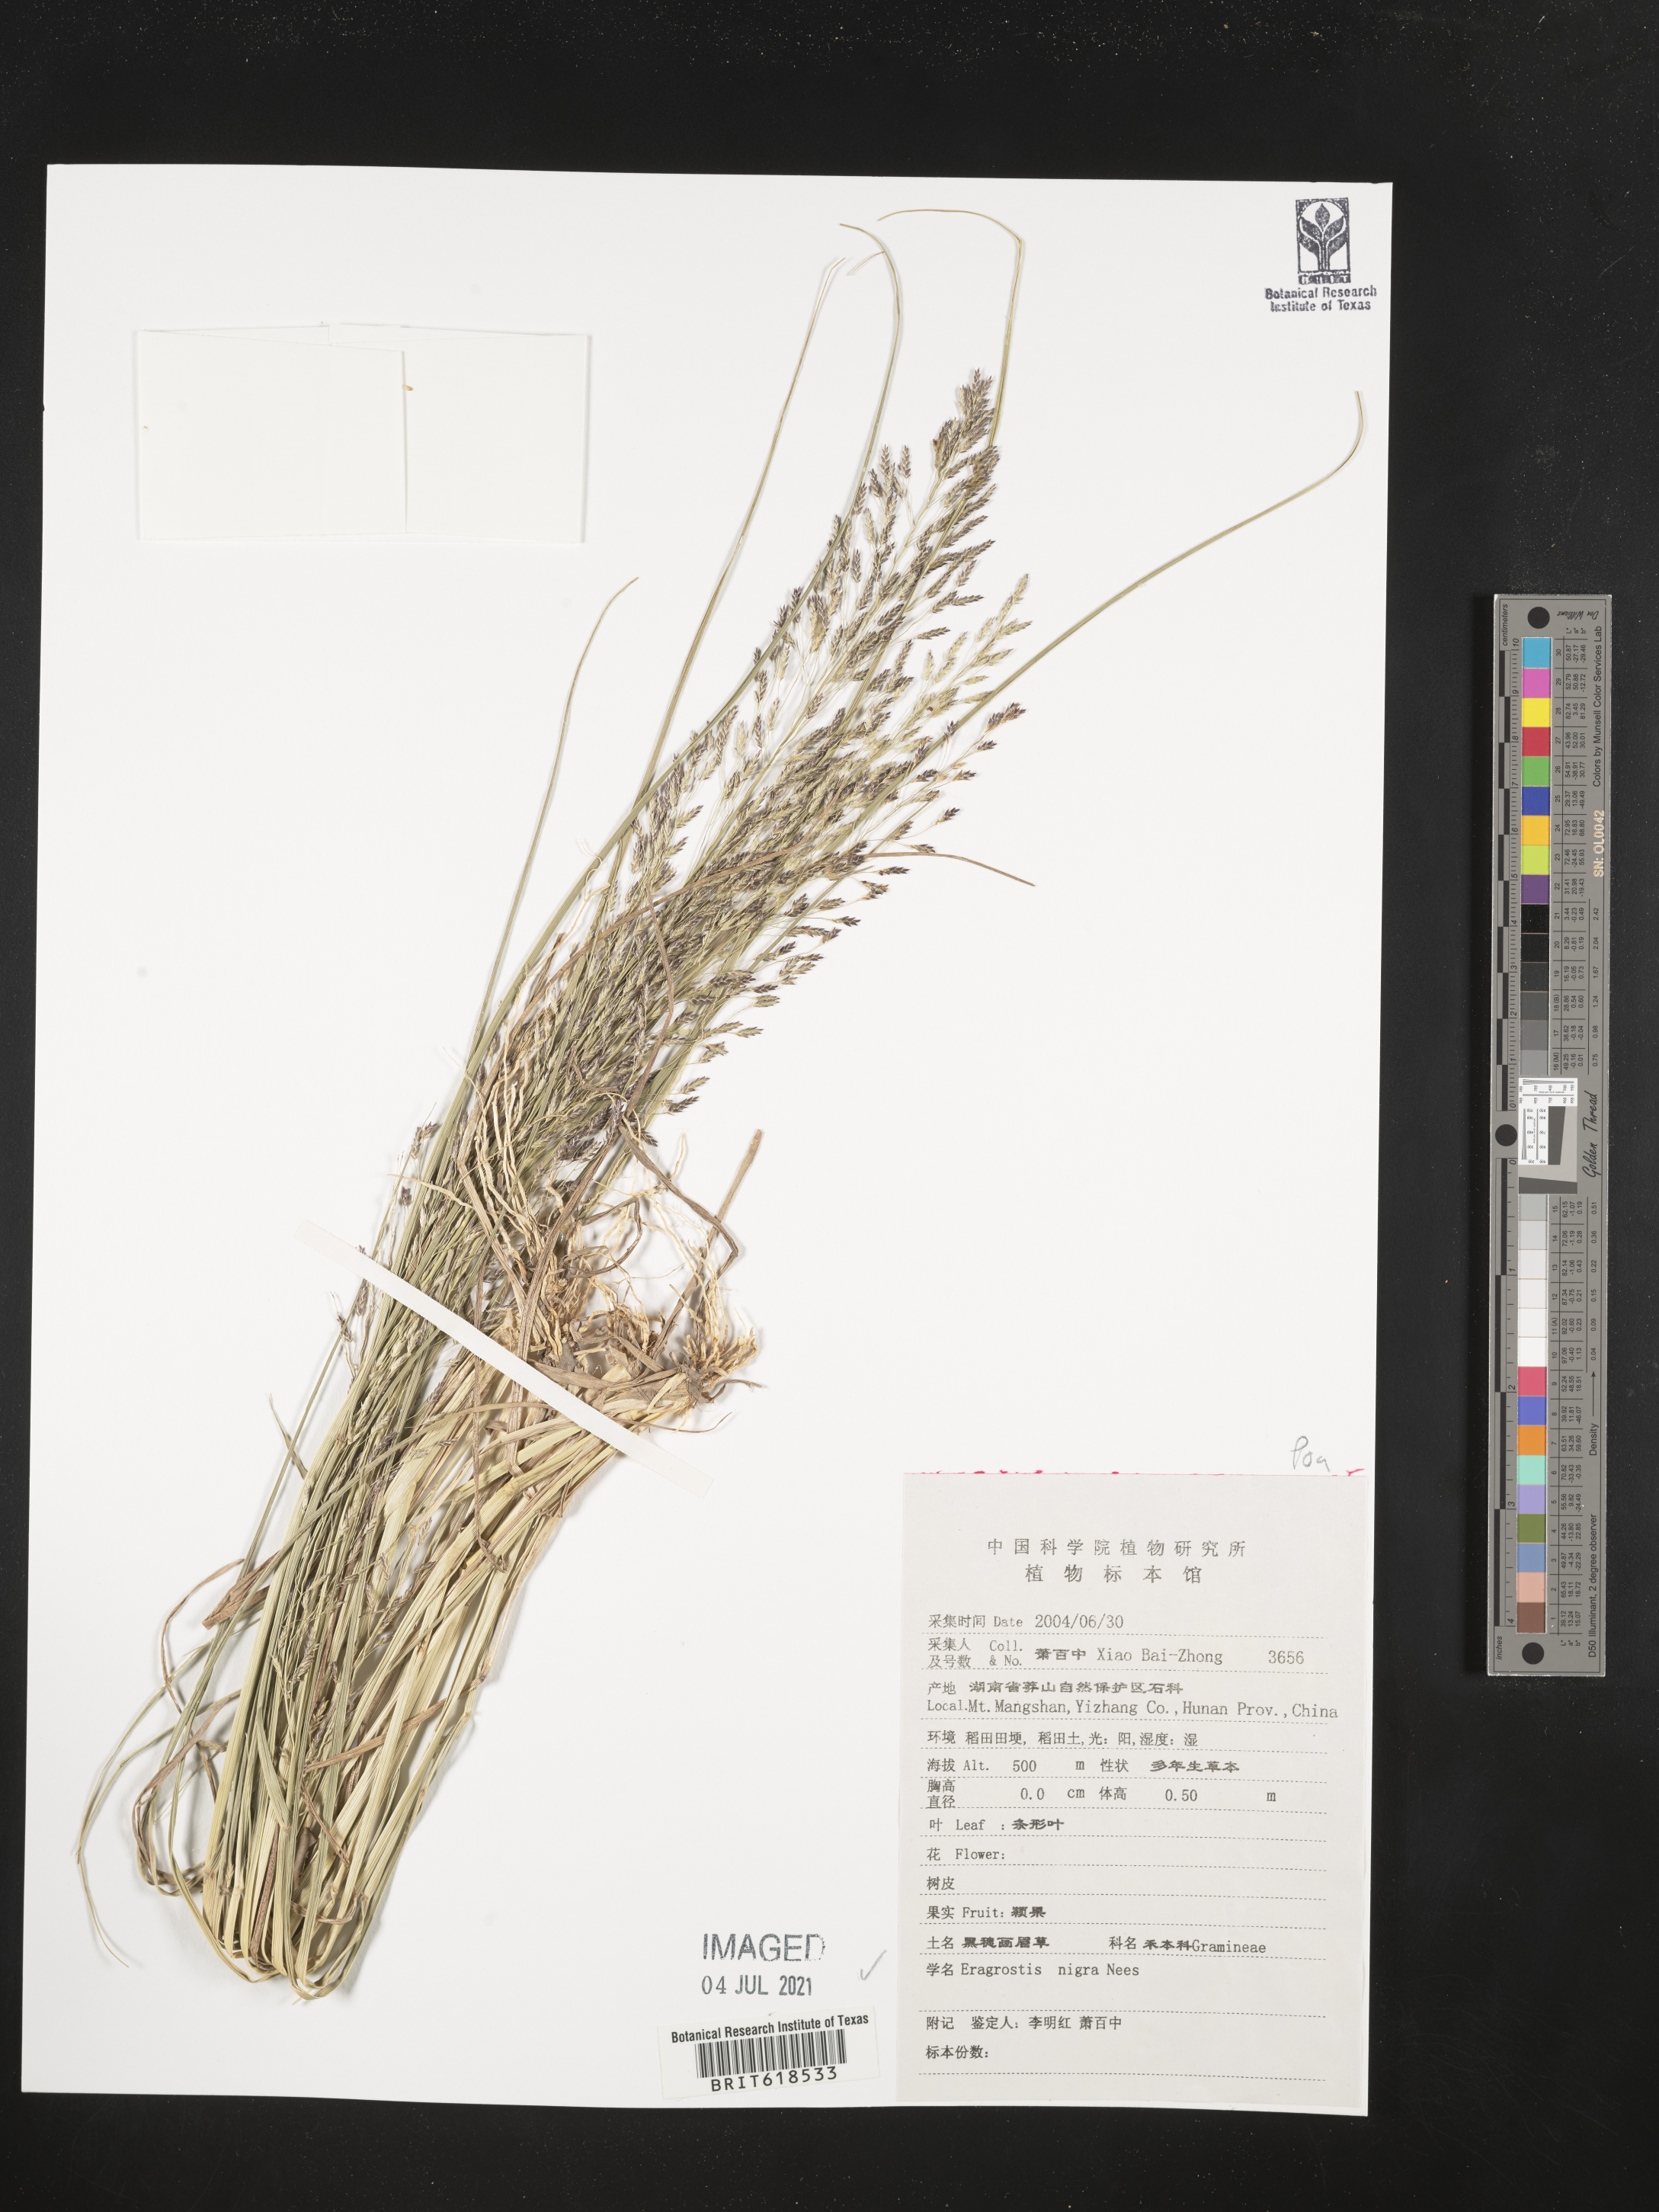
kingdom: Plantae
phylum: Tracheophyta
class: Liliopsida
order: Poales
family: Poaceae
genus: Eragrostis
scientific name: Eragrostis nigra
